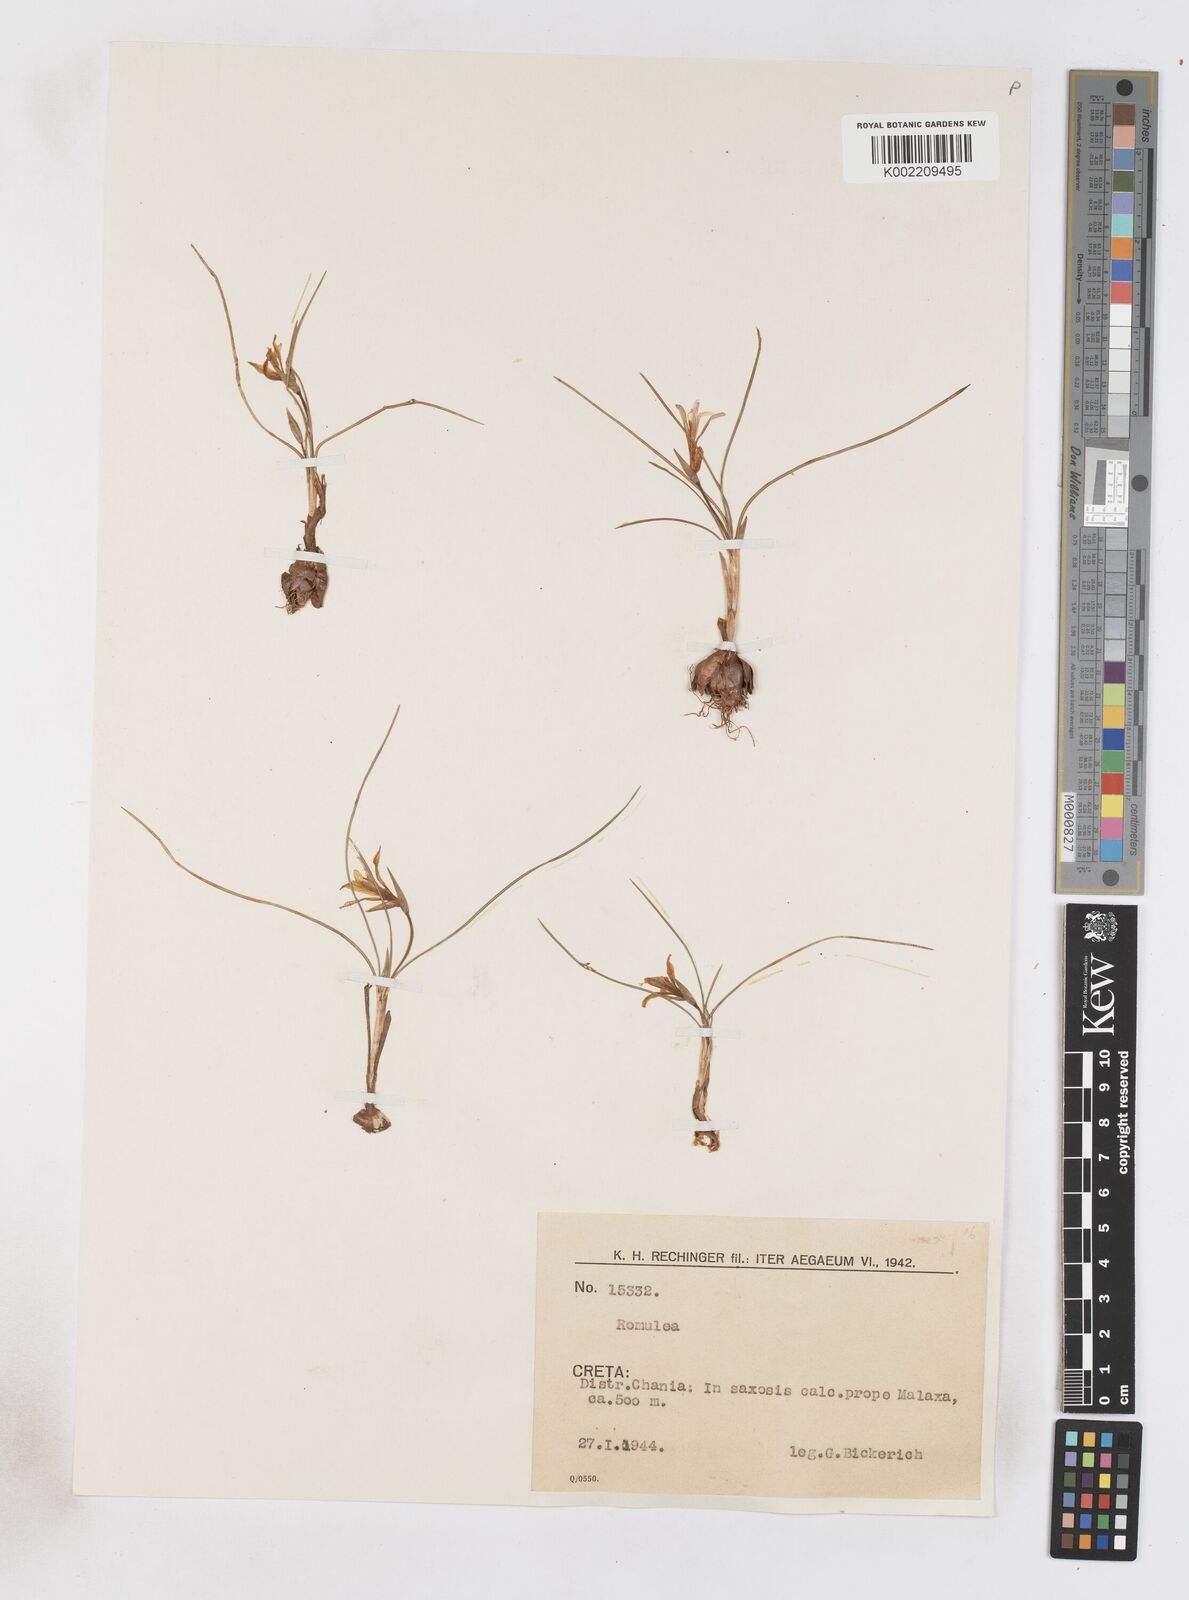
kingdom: Plantae
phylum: Tracheophyta
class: Liliopsida
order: Asparagales
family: Iridaceae
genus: Romulea
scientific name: Romulea bulbocodium
